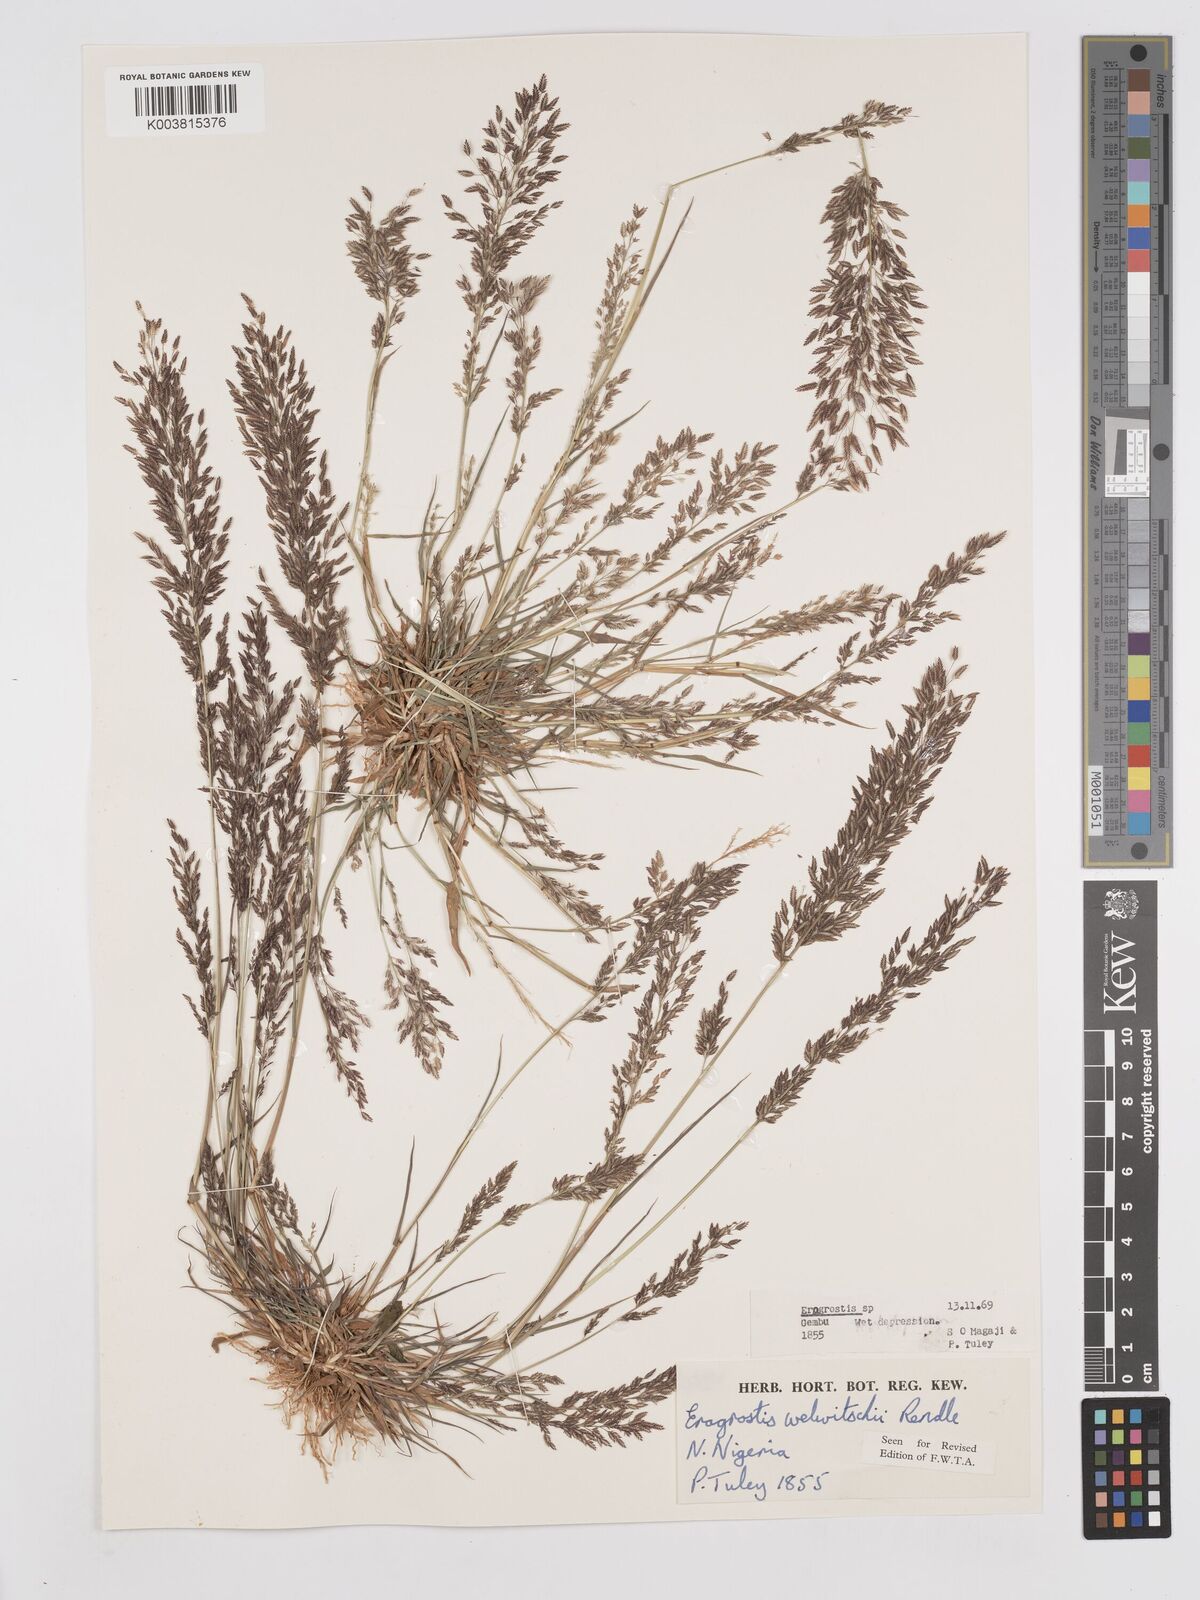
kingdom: Plantae
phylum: Tracheophyta
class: Liliopsida
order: Poales
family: Poaceae
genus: Eragrostis
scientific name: Eragrostis welwitschii
